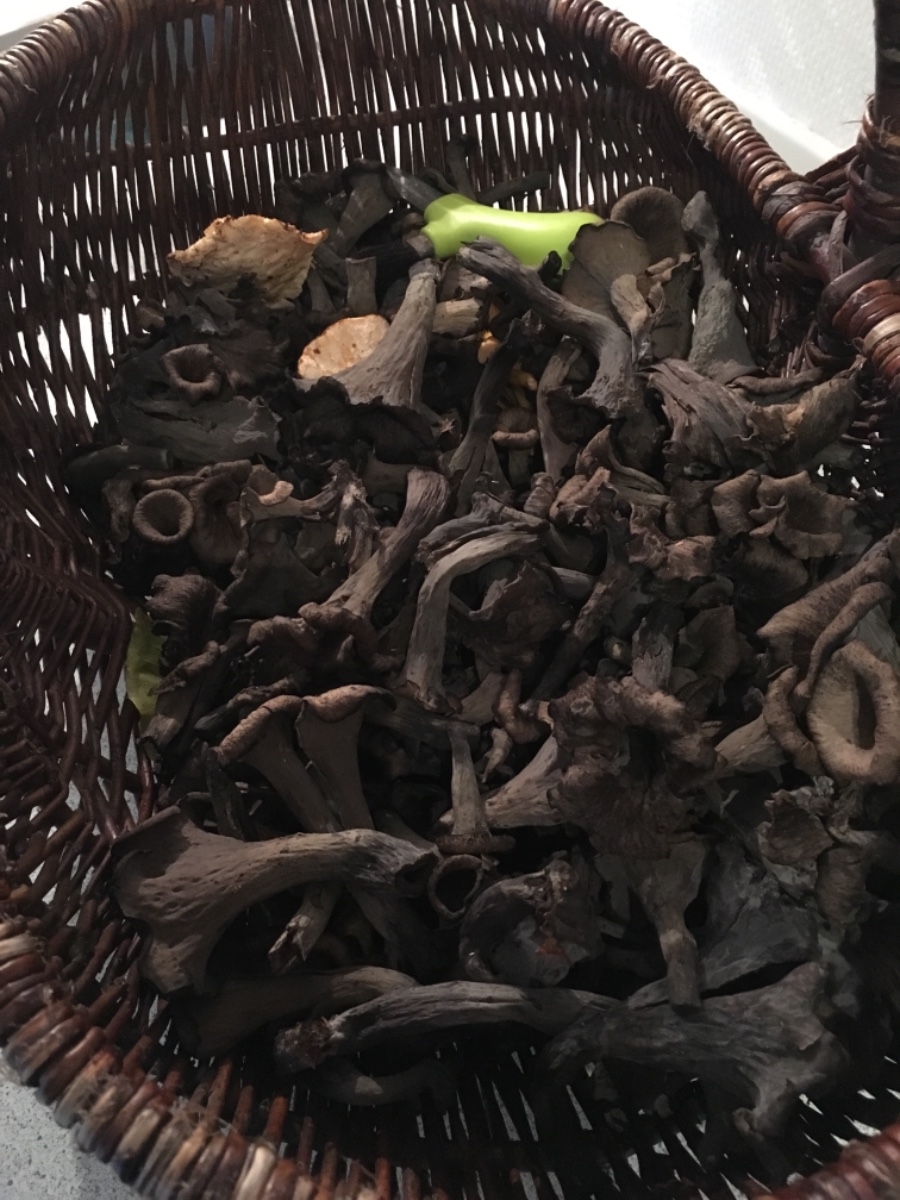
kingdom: Fungi
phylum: Basidiomycota
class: Agaricomycetes
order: Cantharellales
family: Hydnaceae
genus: Craterellus
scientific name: Craterellus cornucopioides
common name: trompetsvamp
